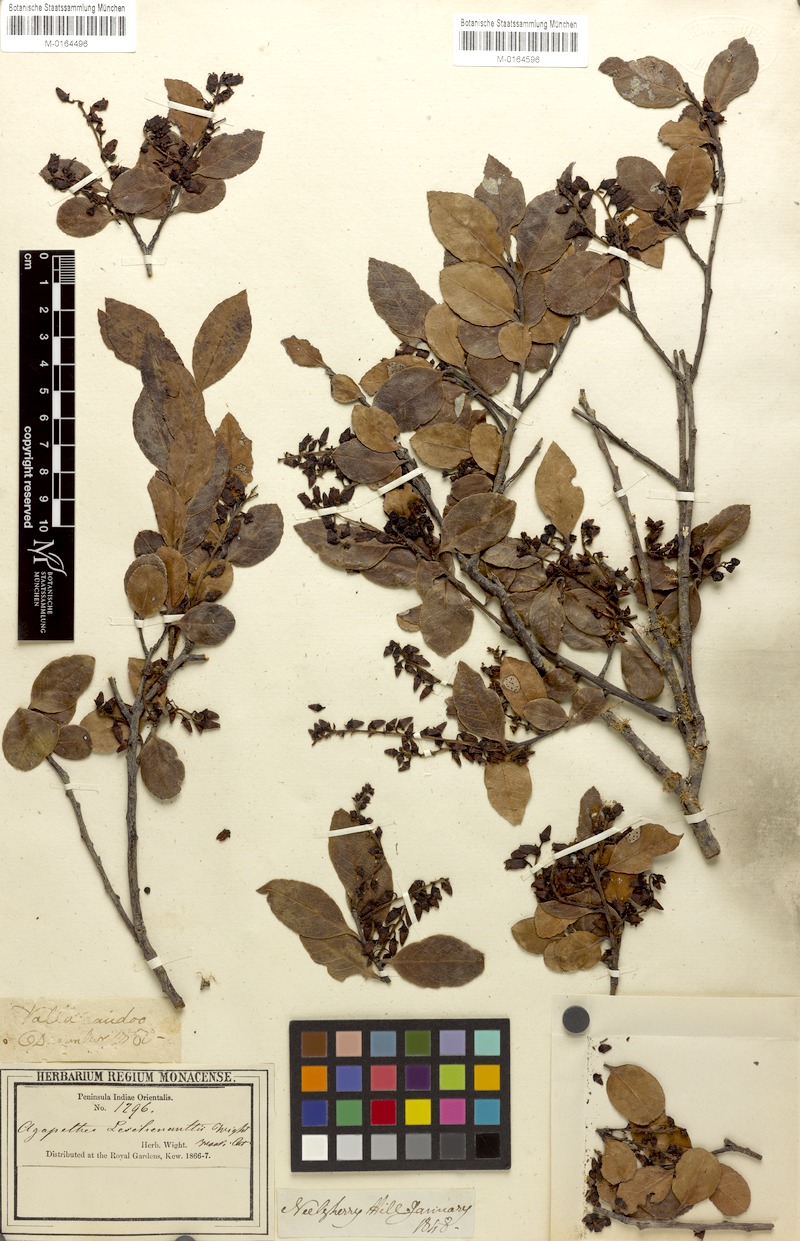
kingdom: Plantae
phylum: Tracheophyta
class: Magnoliopsida
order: Ericales
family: Ericaceae
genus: Vaccinium
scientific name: Vaccinium symplocifolium
